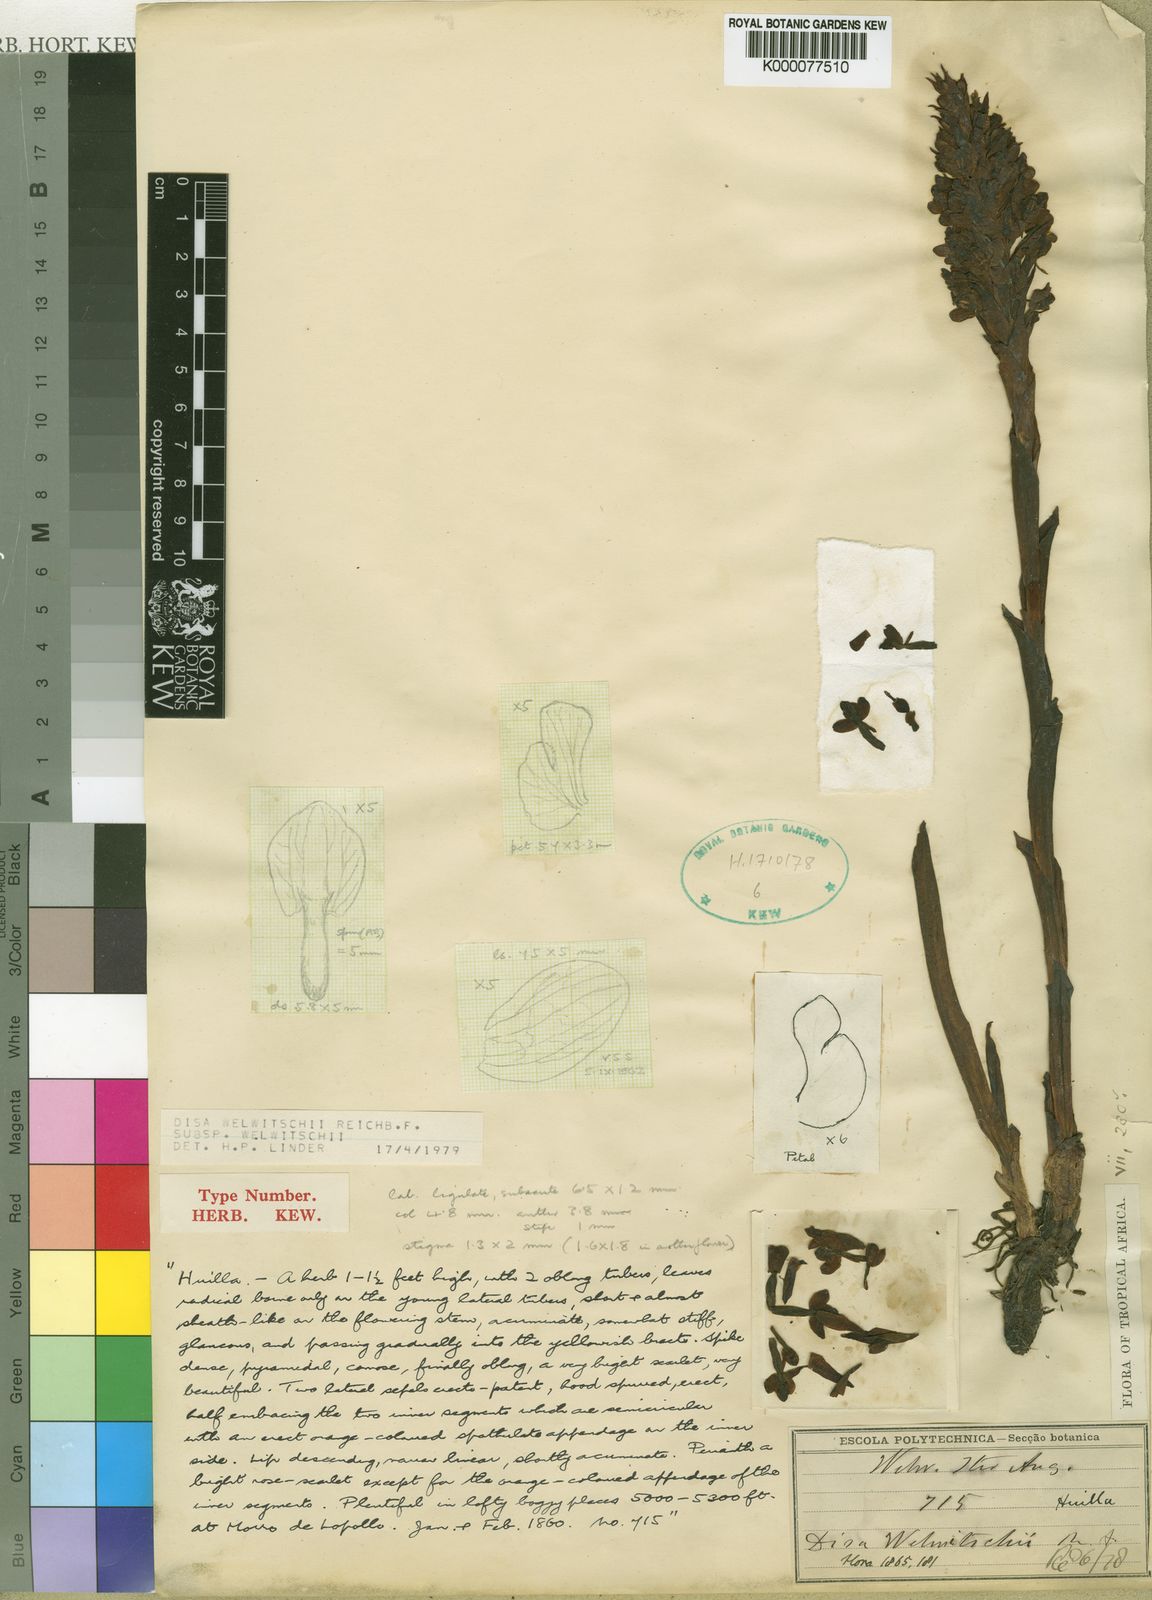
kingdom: Plantae
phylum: Tracheophyta
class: Liliopsida
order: Asparagales
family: Orchidaceae
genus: Disa
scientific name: Disa welwitschii
